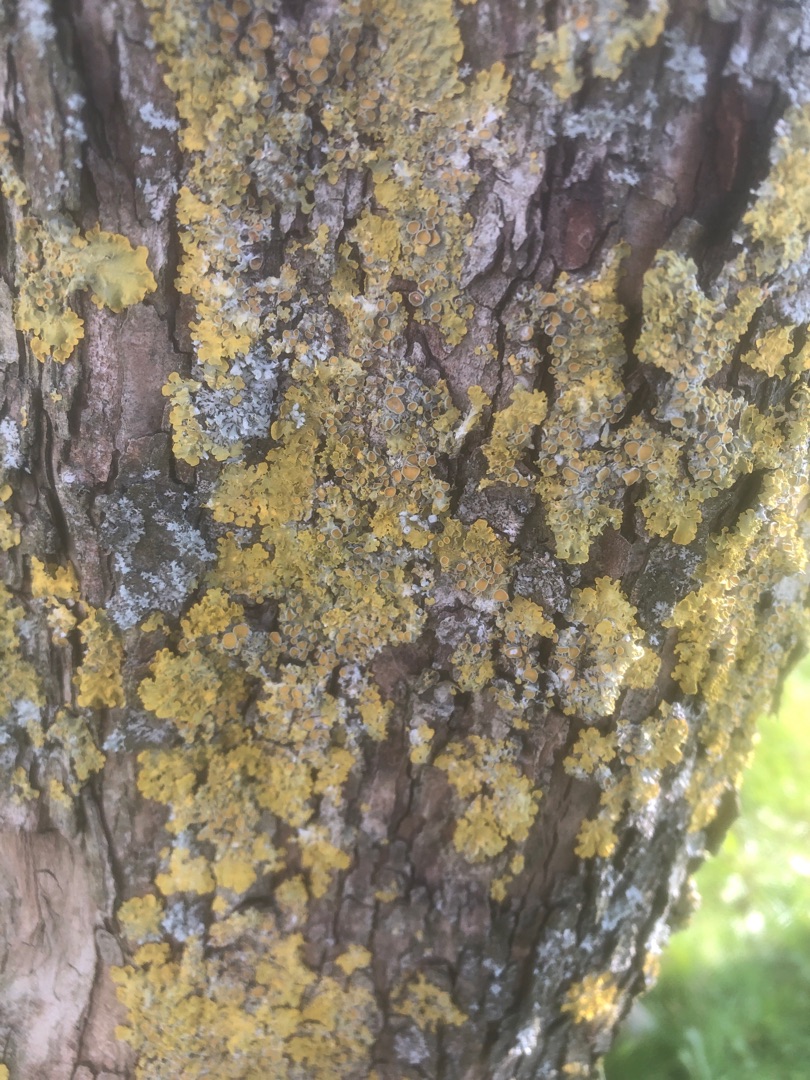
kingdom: Fungi
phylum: Ascomycota
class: Lecanoromycetes
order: Teloschistales
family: Teloschistaceae
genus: Xanthoria
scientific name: Xanthoria parietina
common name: Almindelig væggelav
